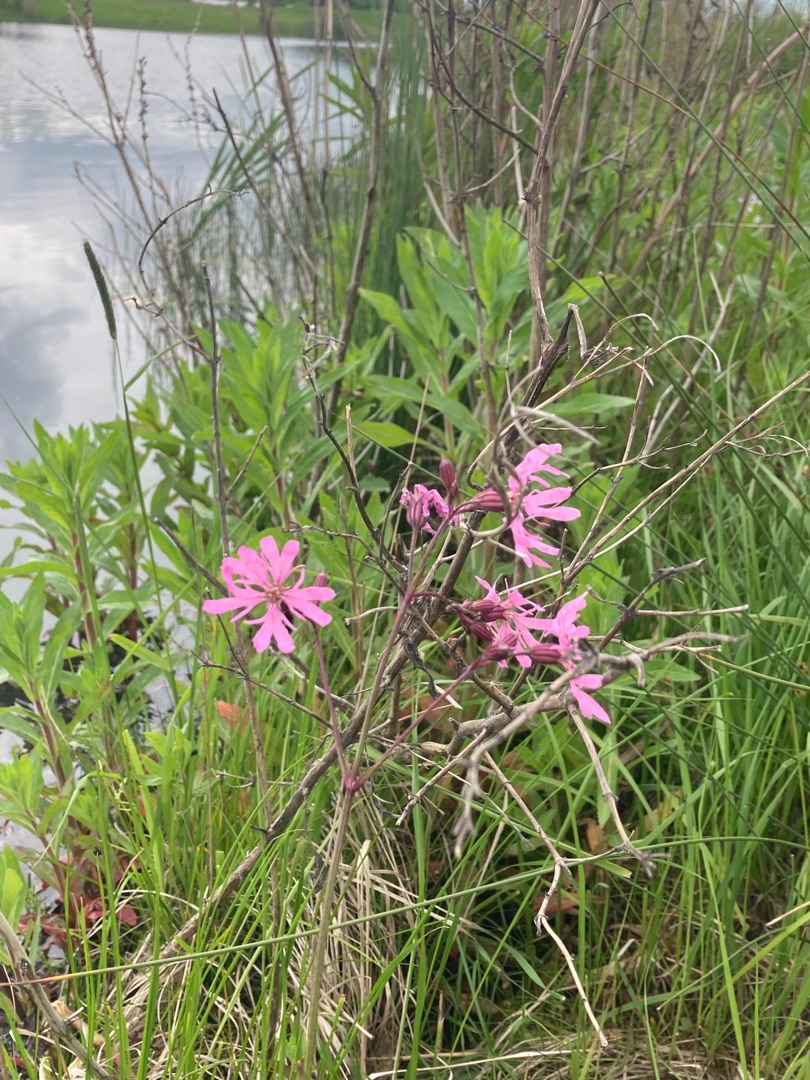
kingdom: Plantae
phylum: Tracheophyta
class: Magnoliopsida
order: Caryophyllales
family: Caryophyllaceae
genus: Silene
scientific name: Silene flos-cuculi
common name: Trævlekrone
